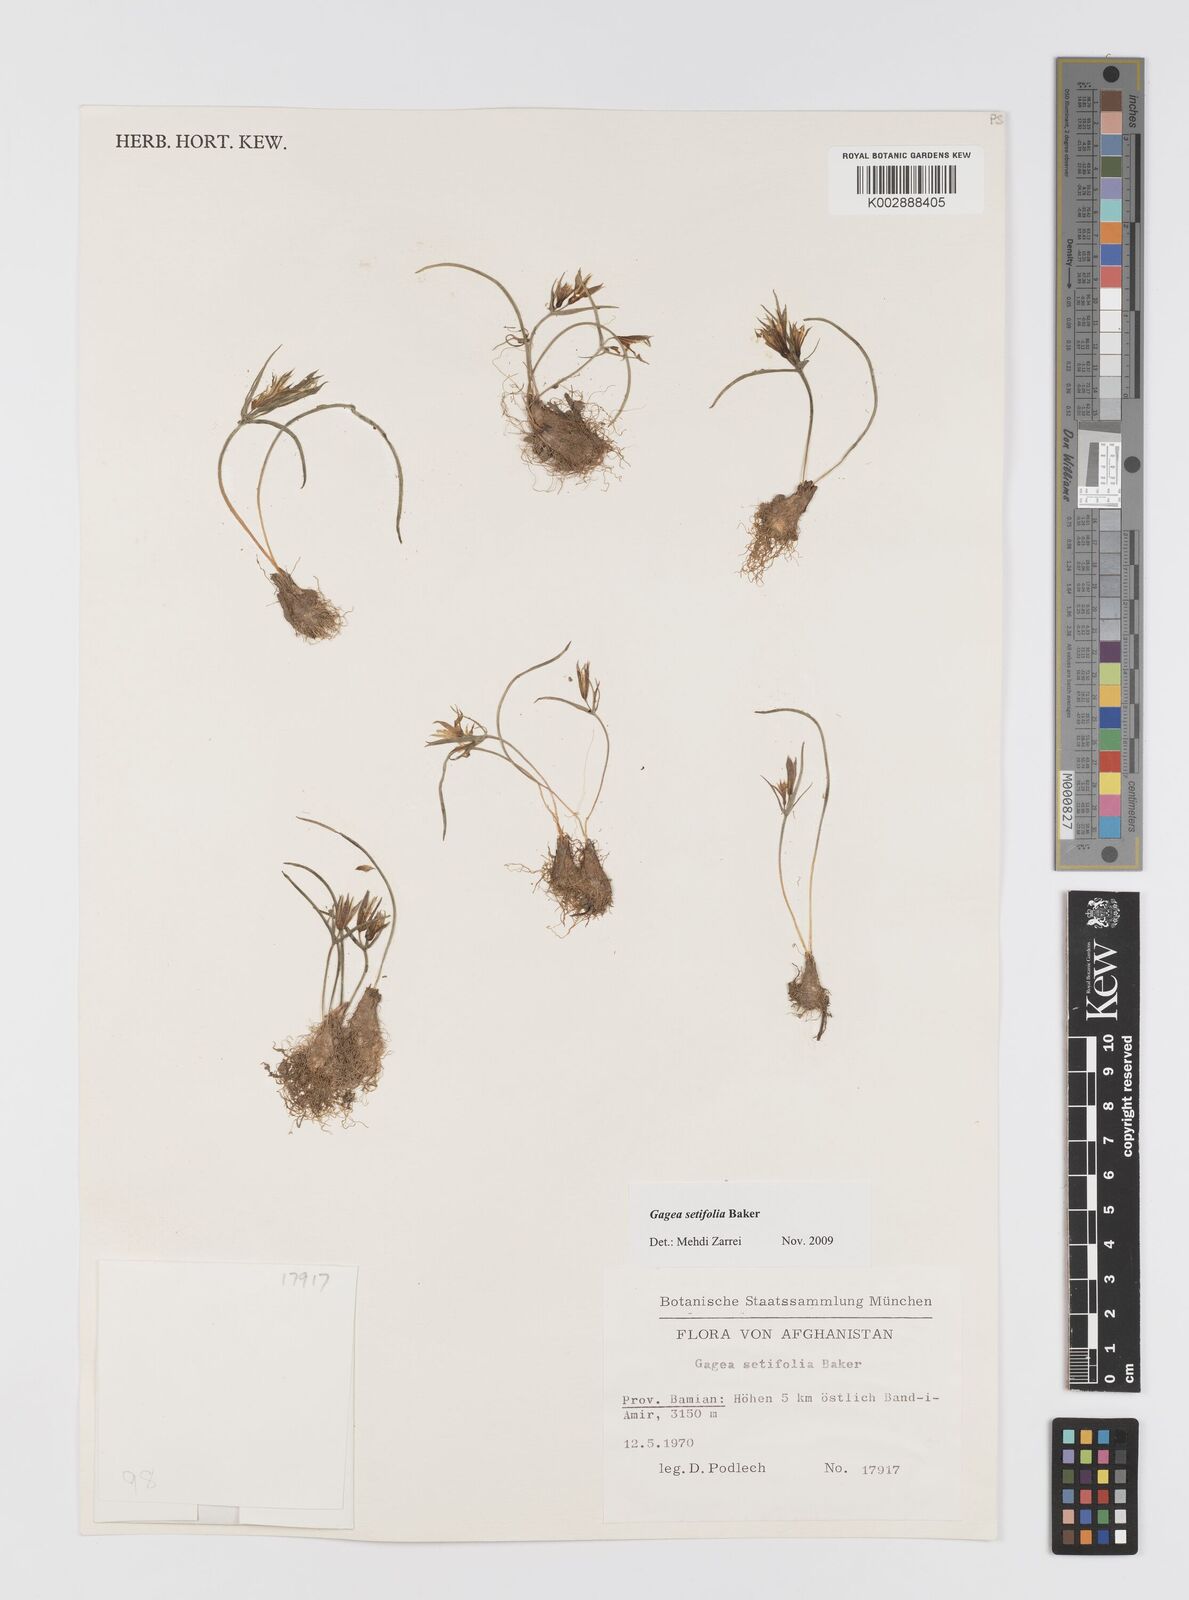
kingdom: Plantae
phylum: Tracheophyta
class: Liliopsida
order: Liliales
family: Liliaceae
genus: Gagea
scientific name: Gagea reticulata
